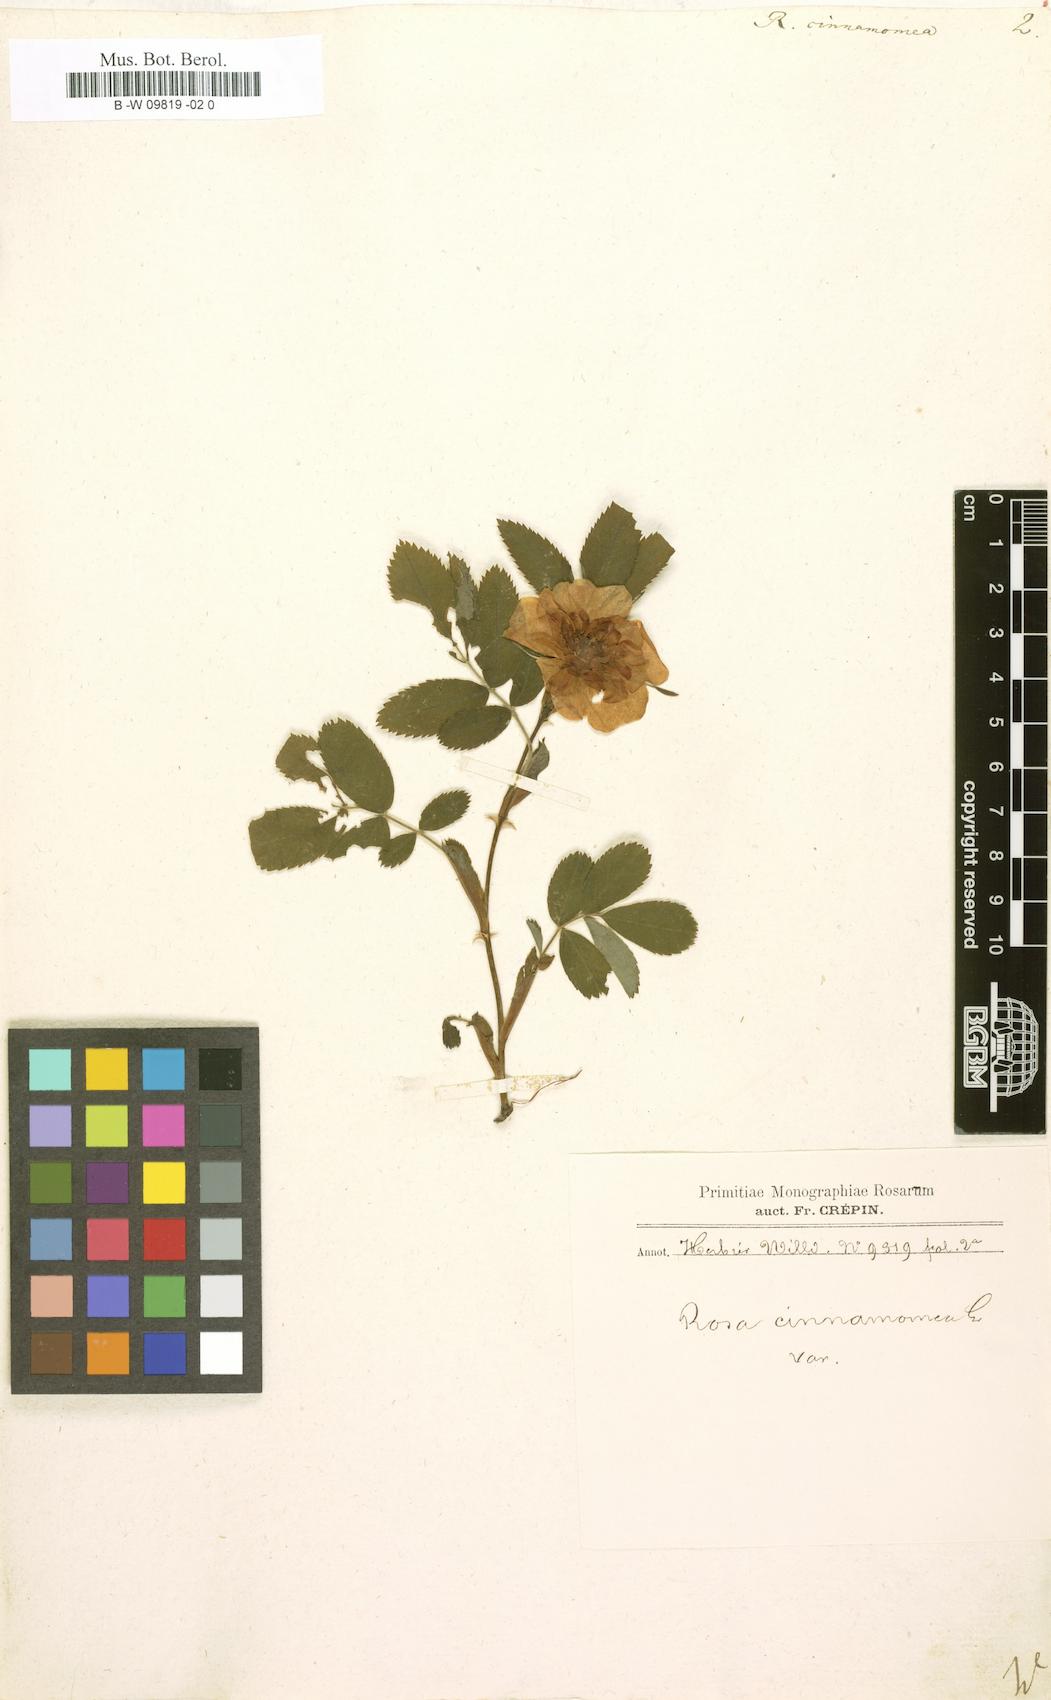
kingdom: Plantae
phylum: Tracheophyta
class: Magnoliopsida
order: Rosales
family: Rosaceae
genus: Rosa
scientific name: Rosa pendulina
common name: Alpine rose
